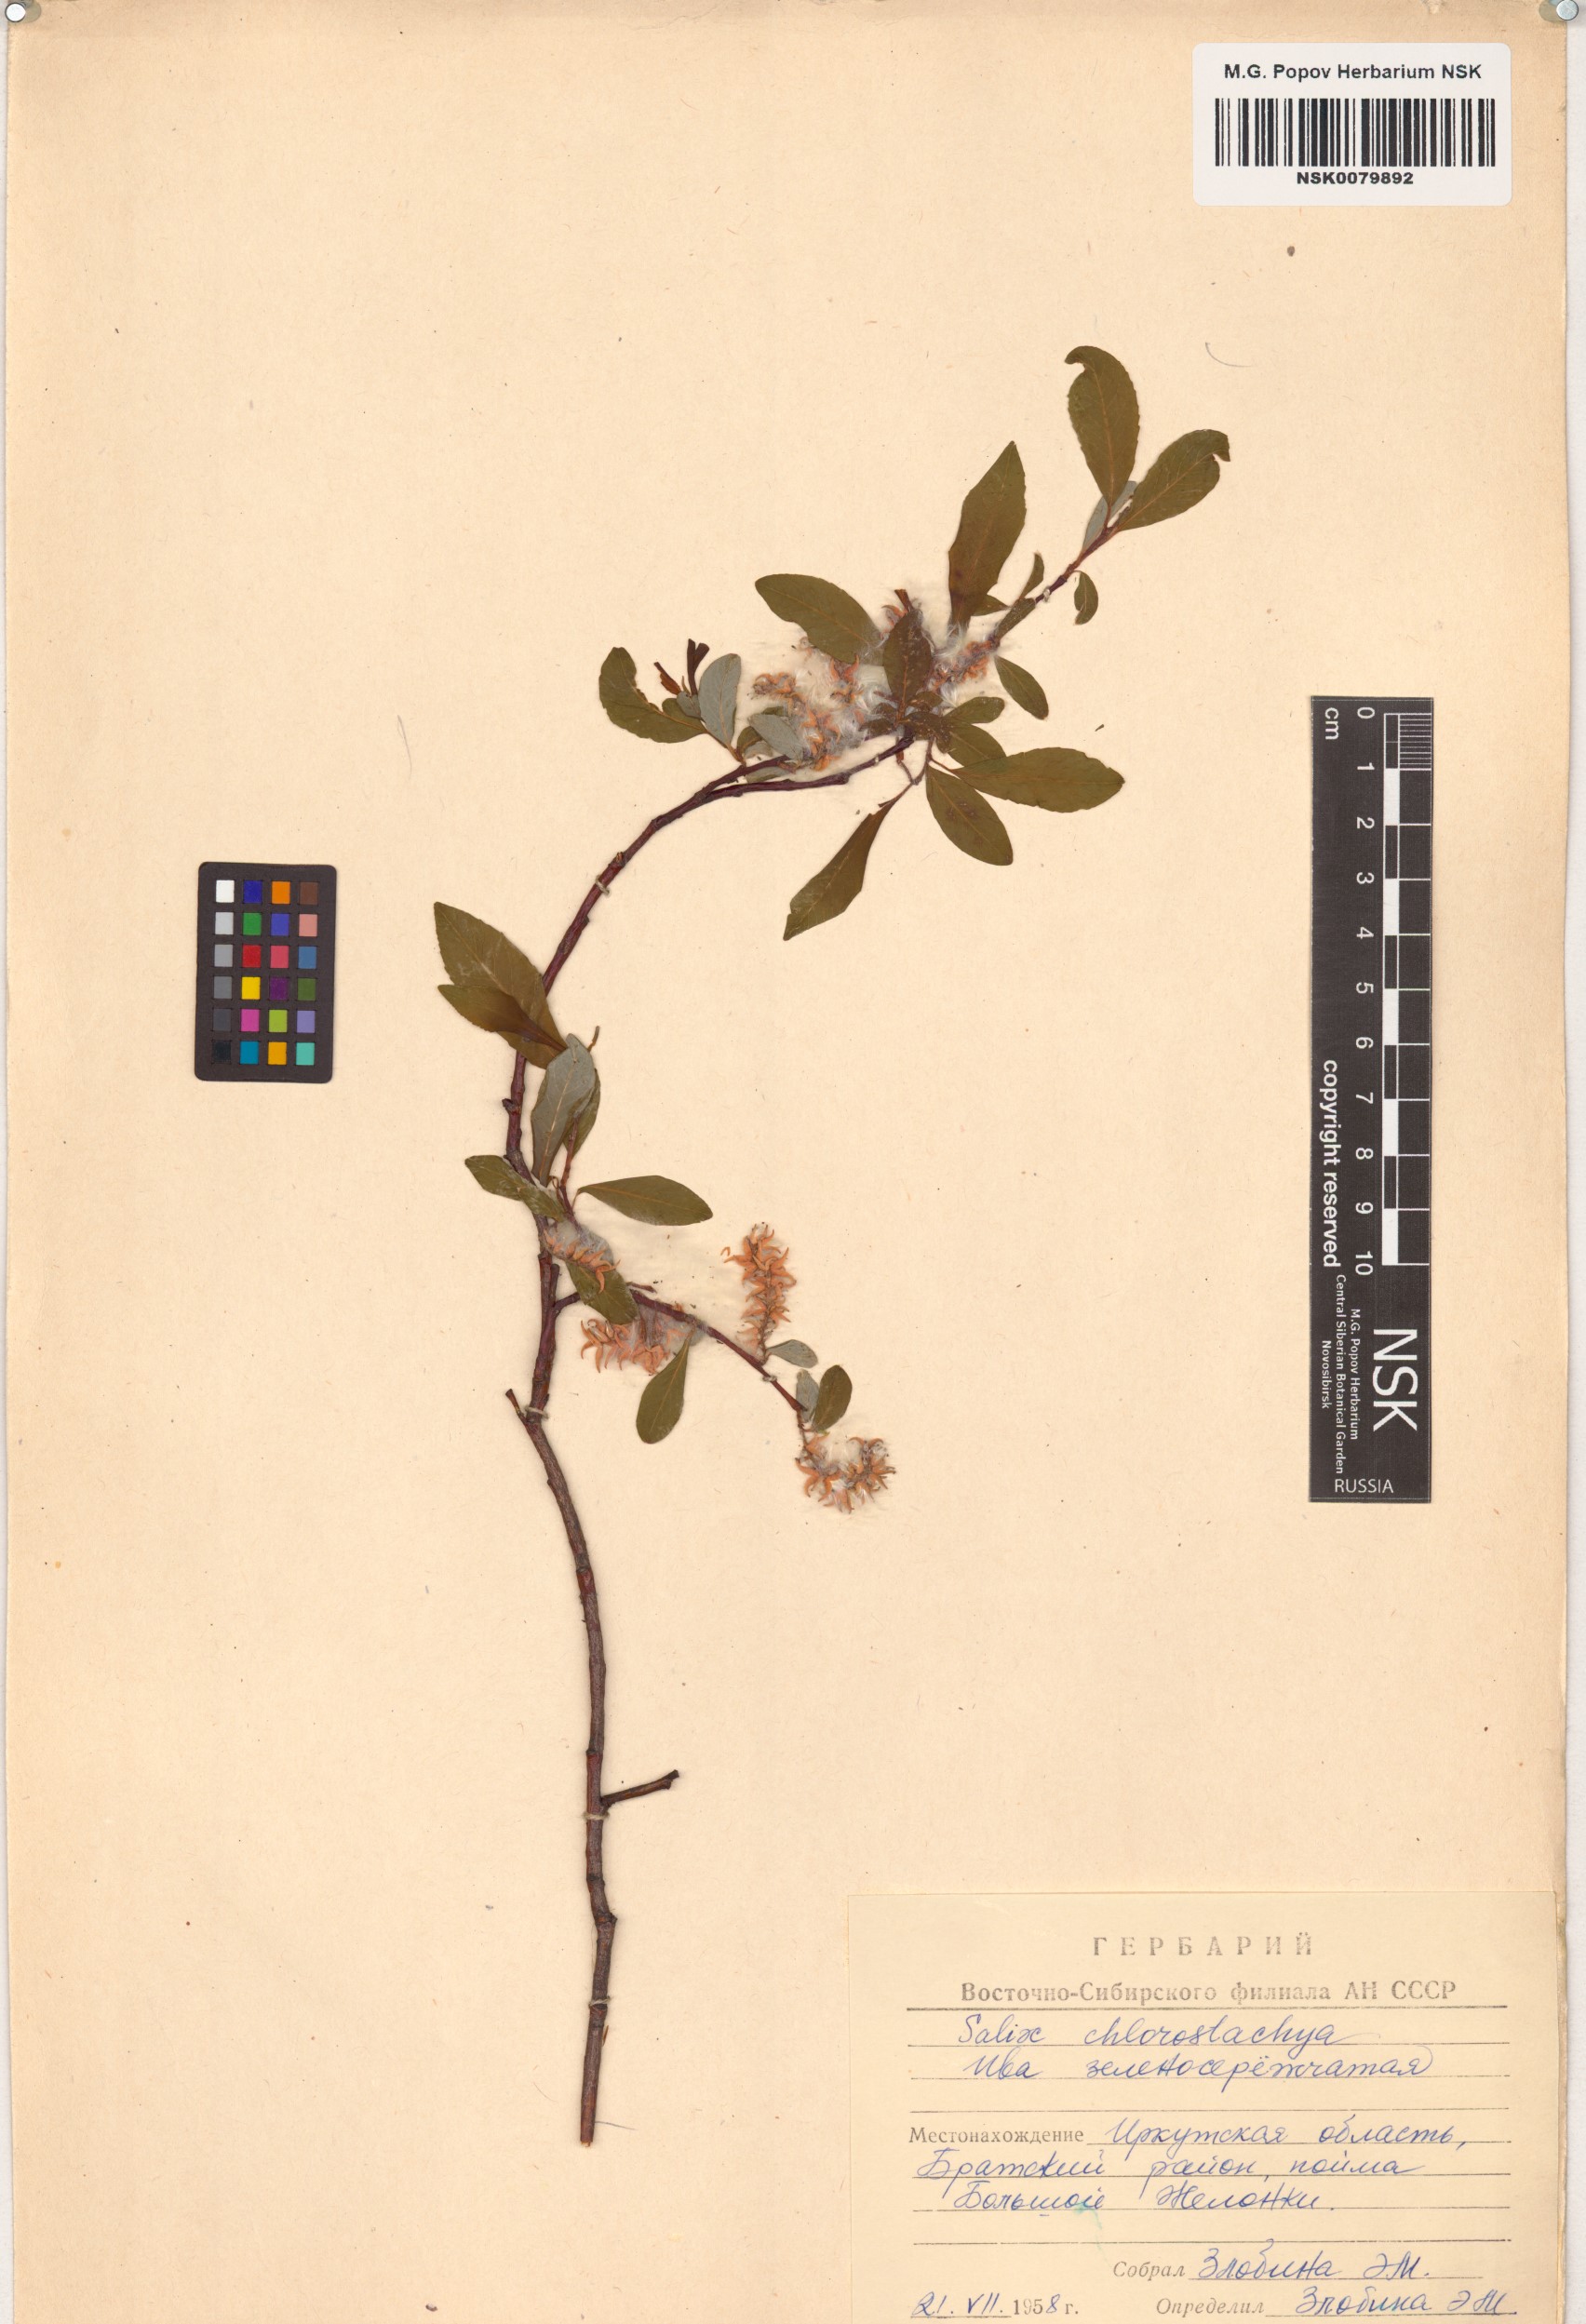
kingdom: Plantae
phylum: Tracheophyta
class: Magnoliopsida
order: Malpighiales
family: Salicaceae
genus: Salix
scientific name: Salix rhamnifolia
